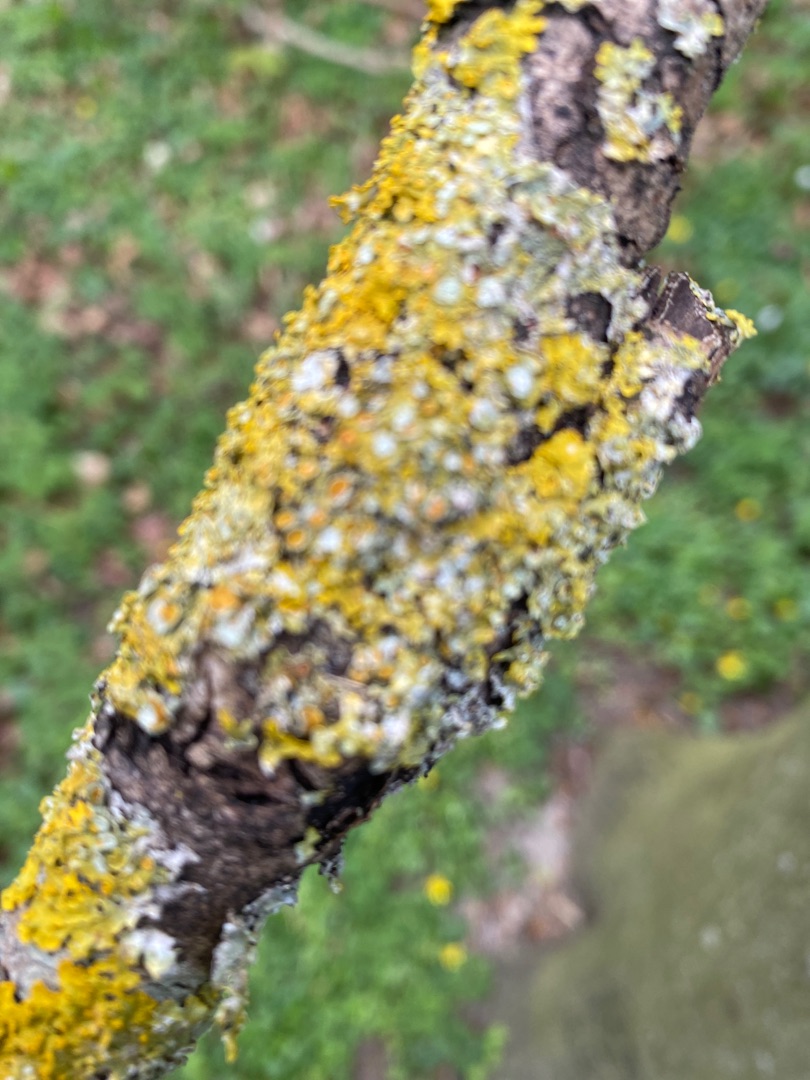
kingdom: Fungi
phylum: Ascomycota
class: Lecanoromycetes
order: Teloschistales
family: Teloschistaceae
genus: Xanthoria
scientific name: Xanthoria parietina
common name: Almindelig væggelav
